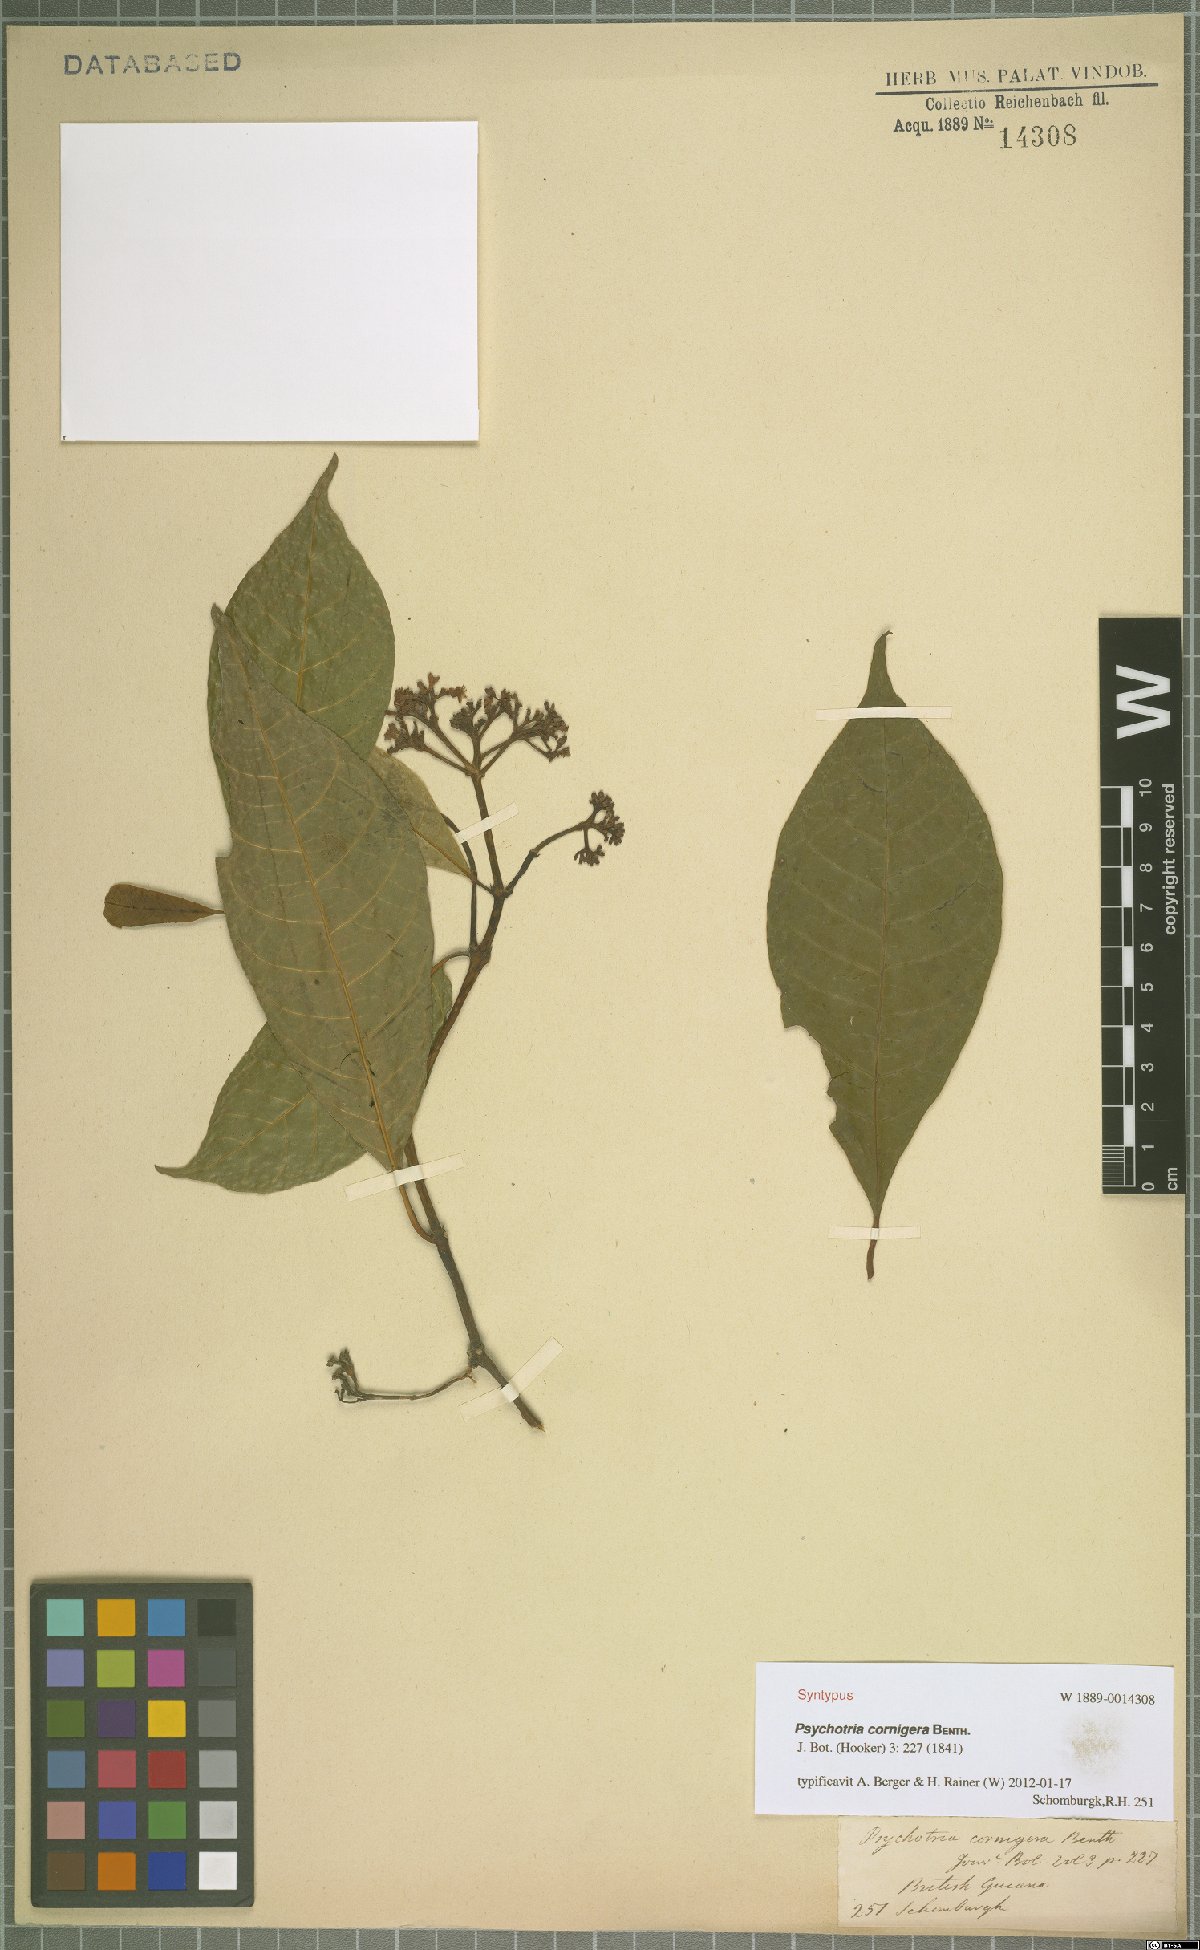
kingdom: Plantae
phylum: Tracheophyta
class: Magnoliopsida
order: Gentianales
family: Rubiaceae
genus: Palicourea
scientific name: Palicourea subcuspidata
